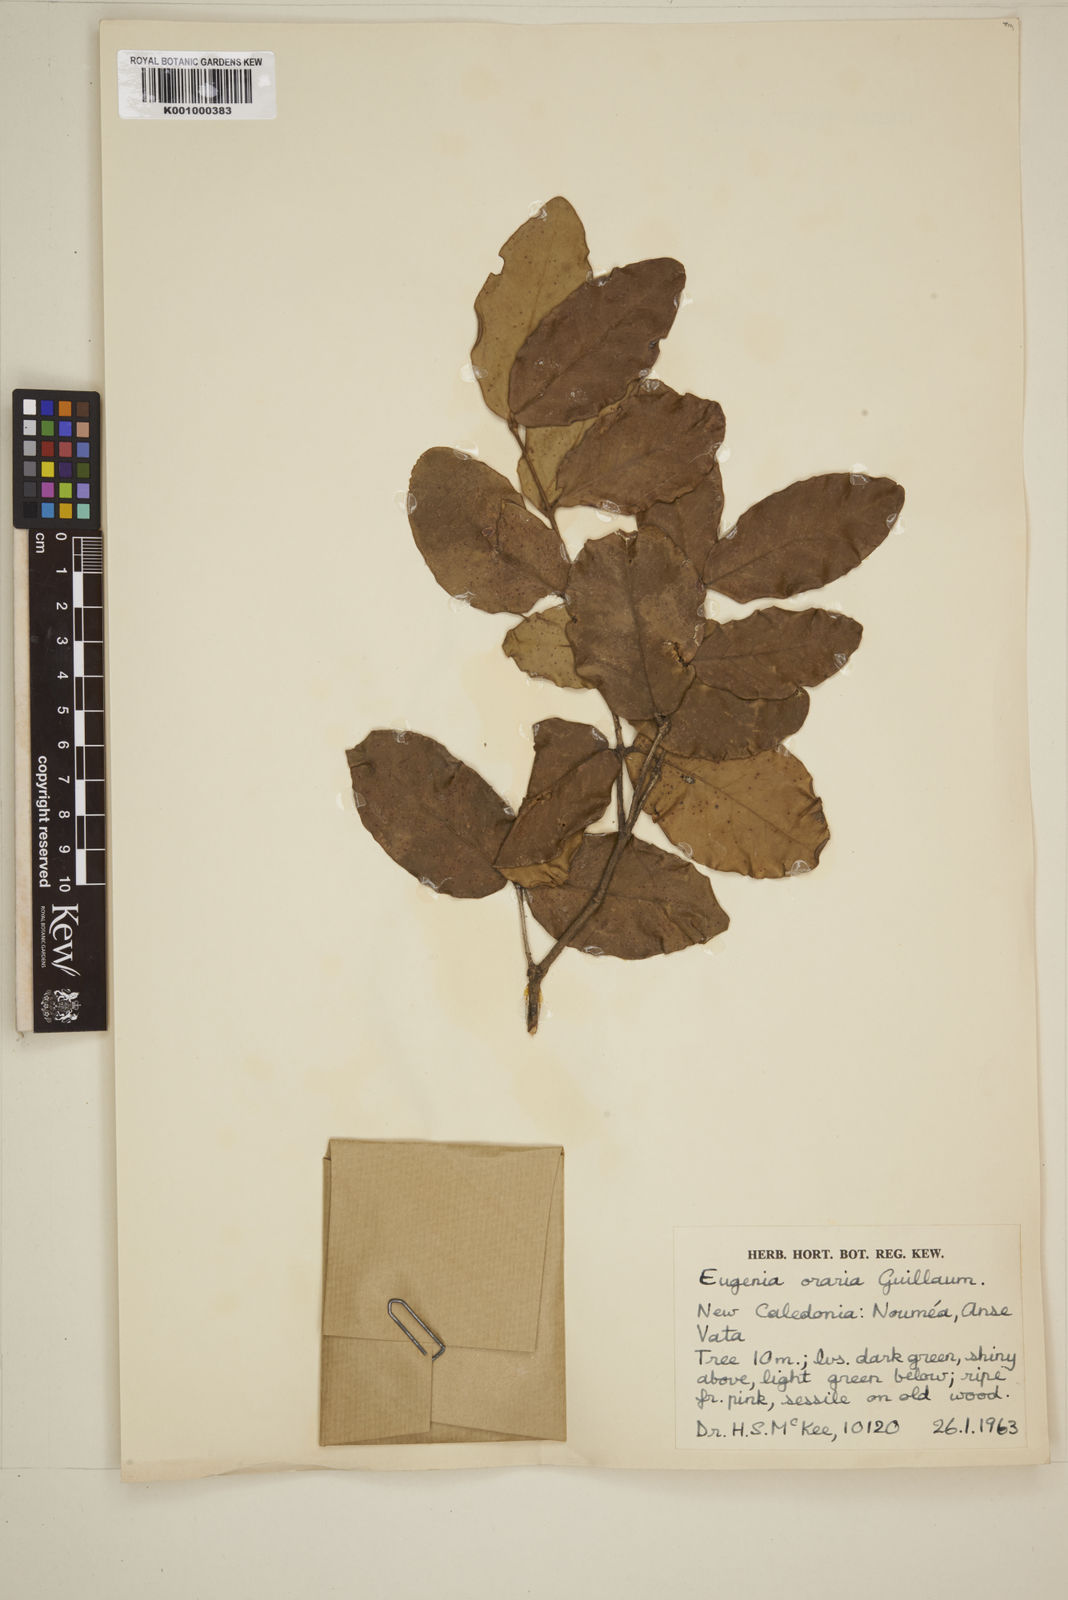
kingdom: Plantae
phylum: Tracheophyta
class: Magnoliopsida
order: Myrtales
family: Myrtaceae
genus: Eugenia
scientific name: Eugenia littoralis
